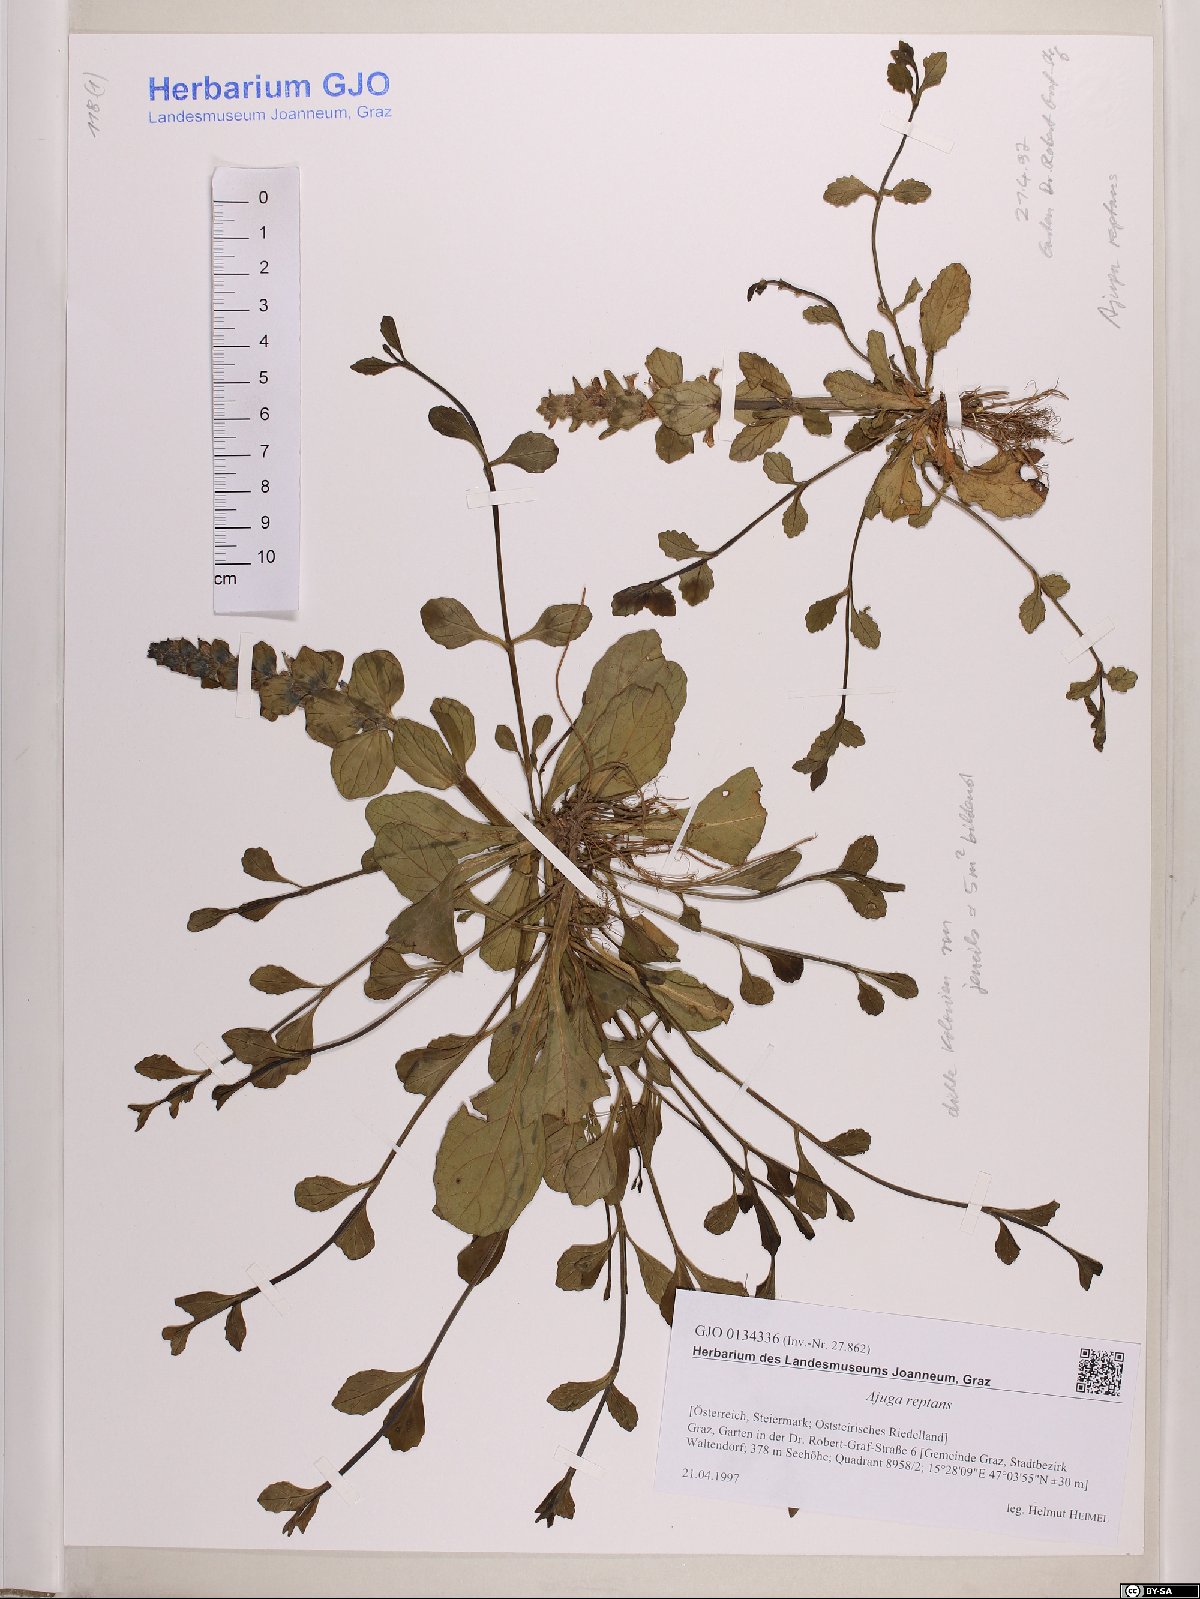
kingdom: Plantae
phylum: Tracheophyta
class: Magnoliopsida
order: Lamiales
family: Lamiaceae
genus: Ajuga
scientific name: Ajuga reptans
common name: Bugle
